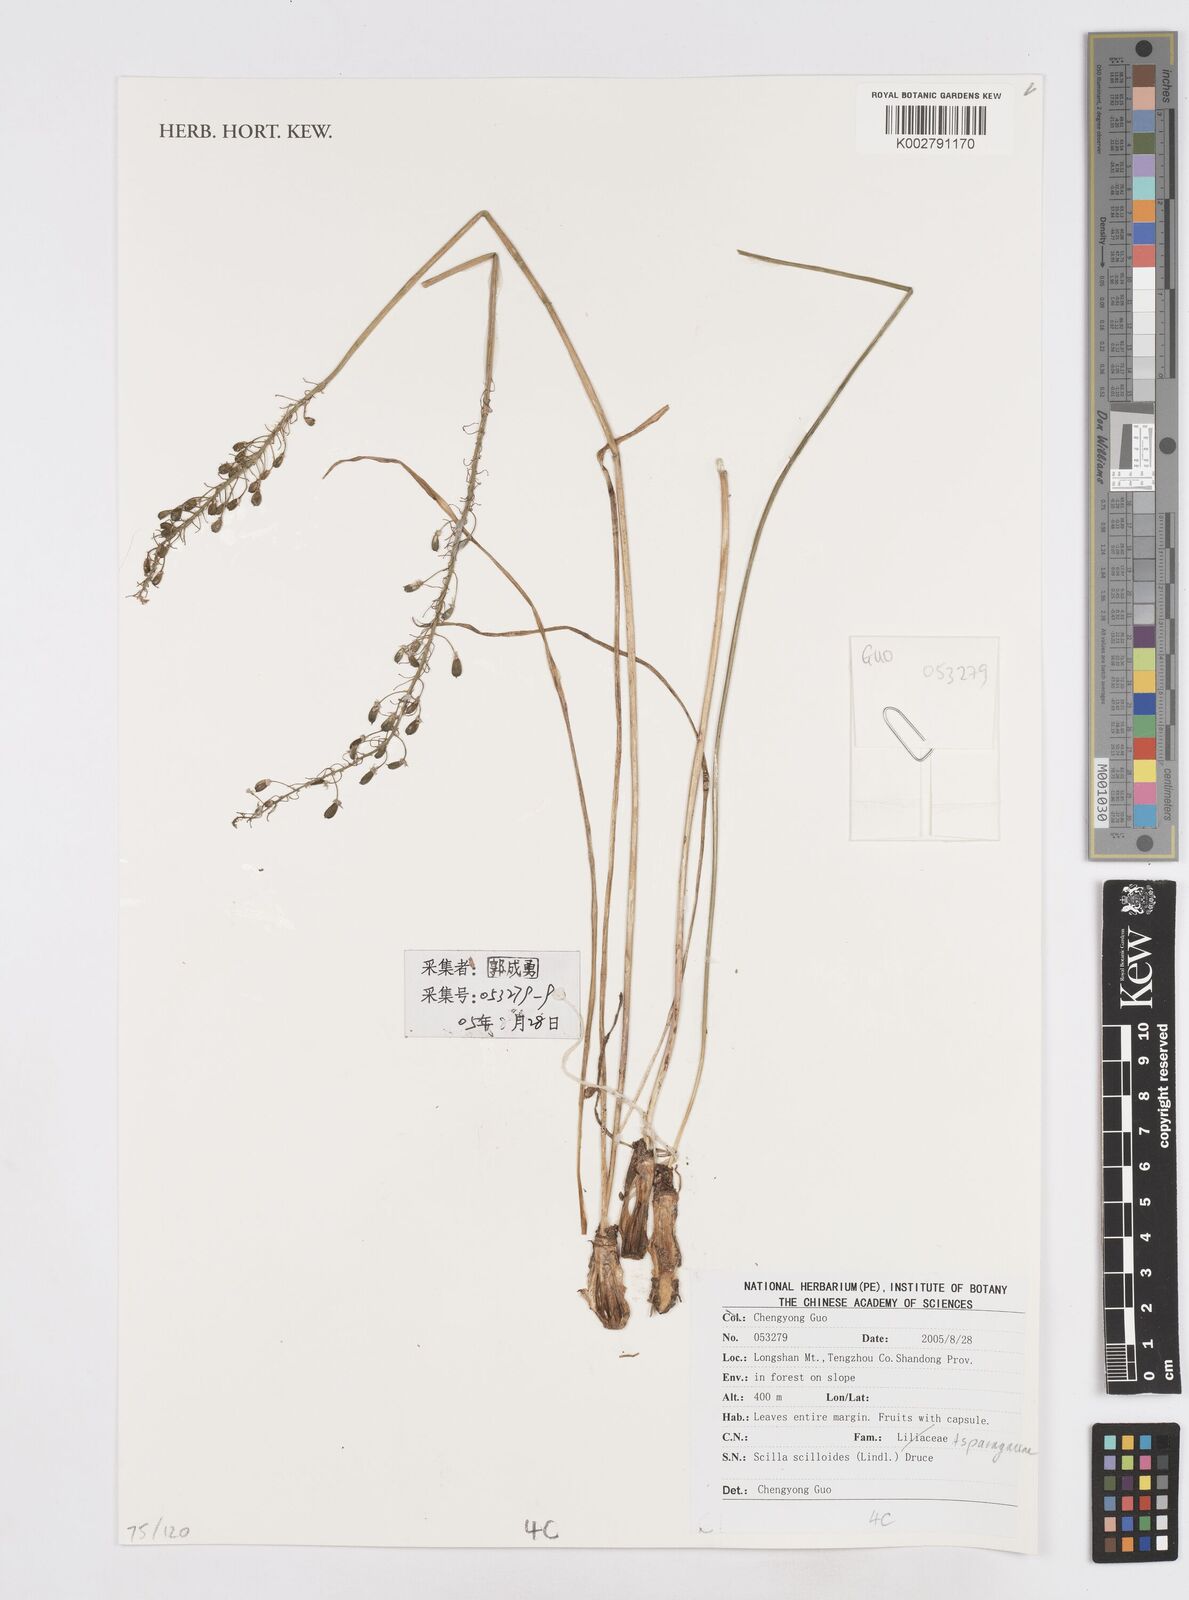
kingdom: Plantae
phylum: Tracheophyta
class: Liliopsida
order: Asparagales
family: Asparagaceae
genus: Barnardia
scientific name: Barnardia japonica
